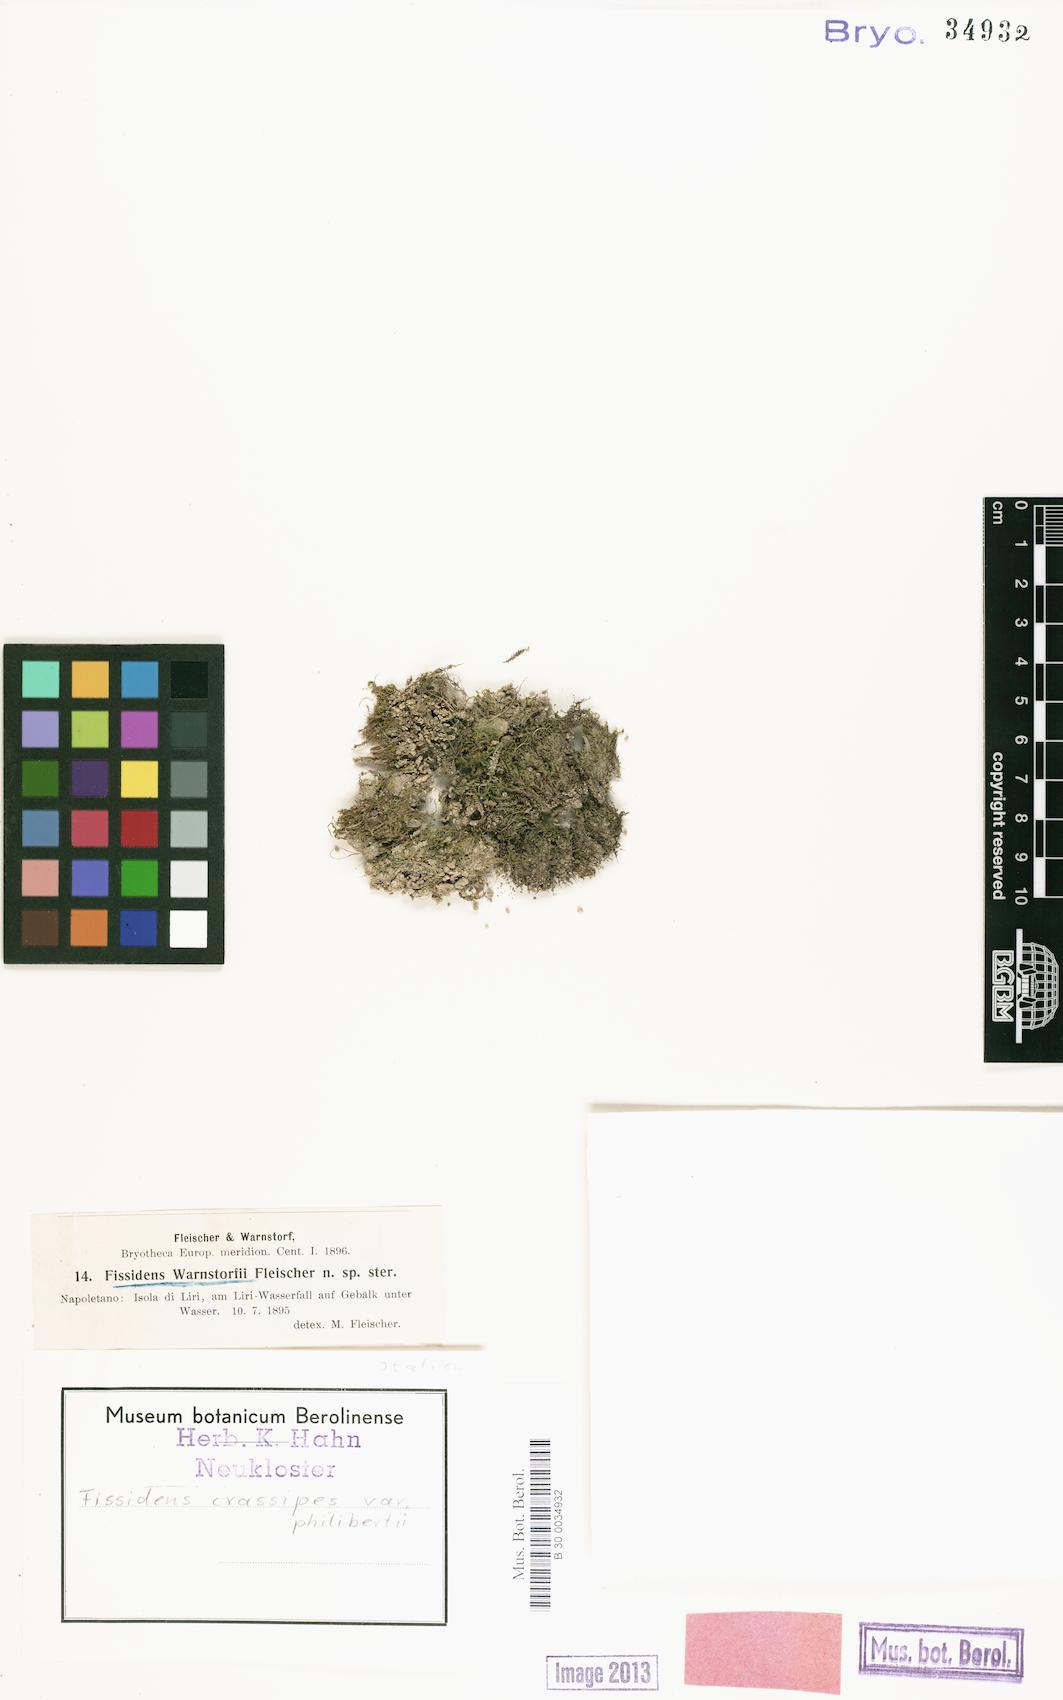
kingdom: Plantae
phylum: Bryophyta
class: Bryopsida
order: Dicranales
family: Fissidentaceae
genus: Fissidens
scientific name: Fissidens crassipes
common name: Fatfoot pocket-moss
